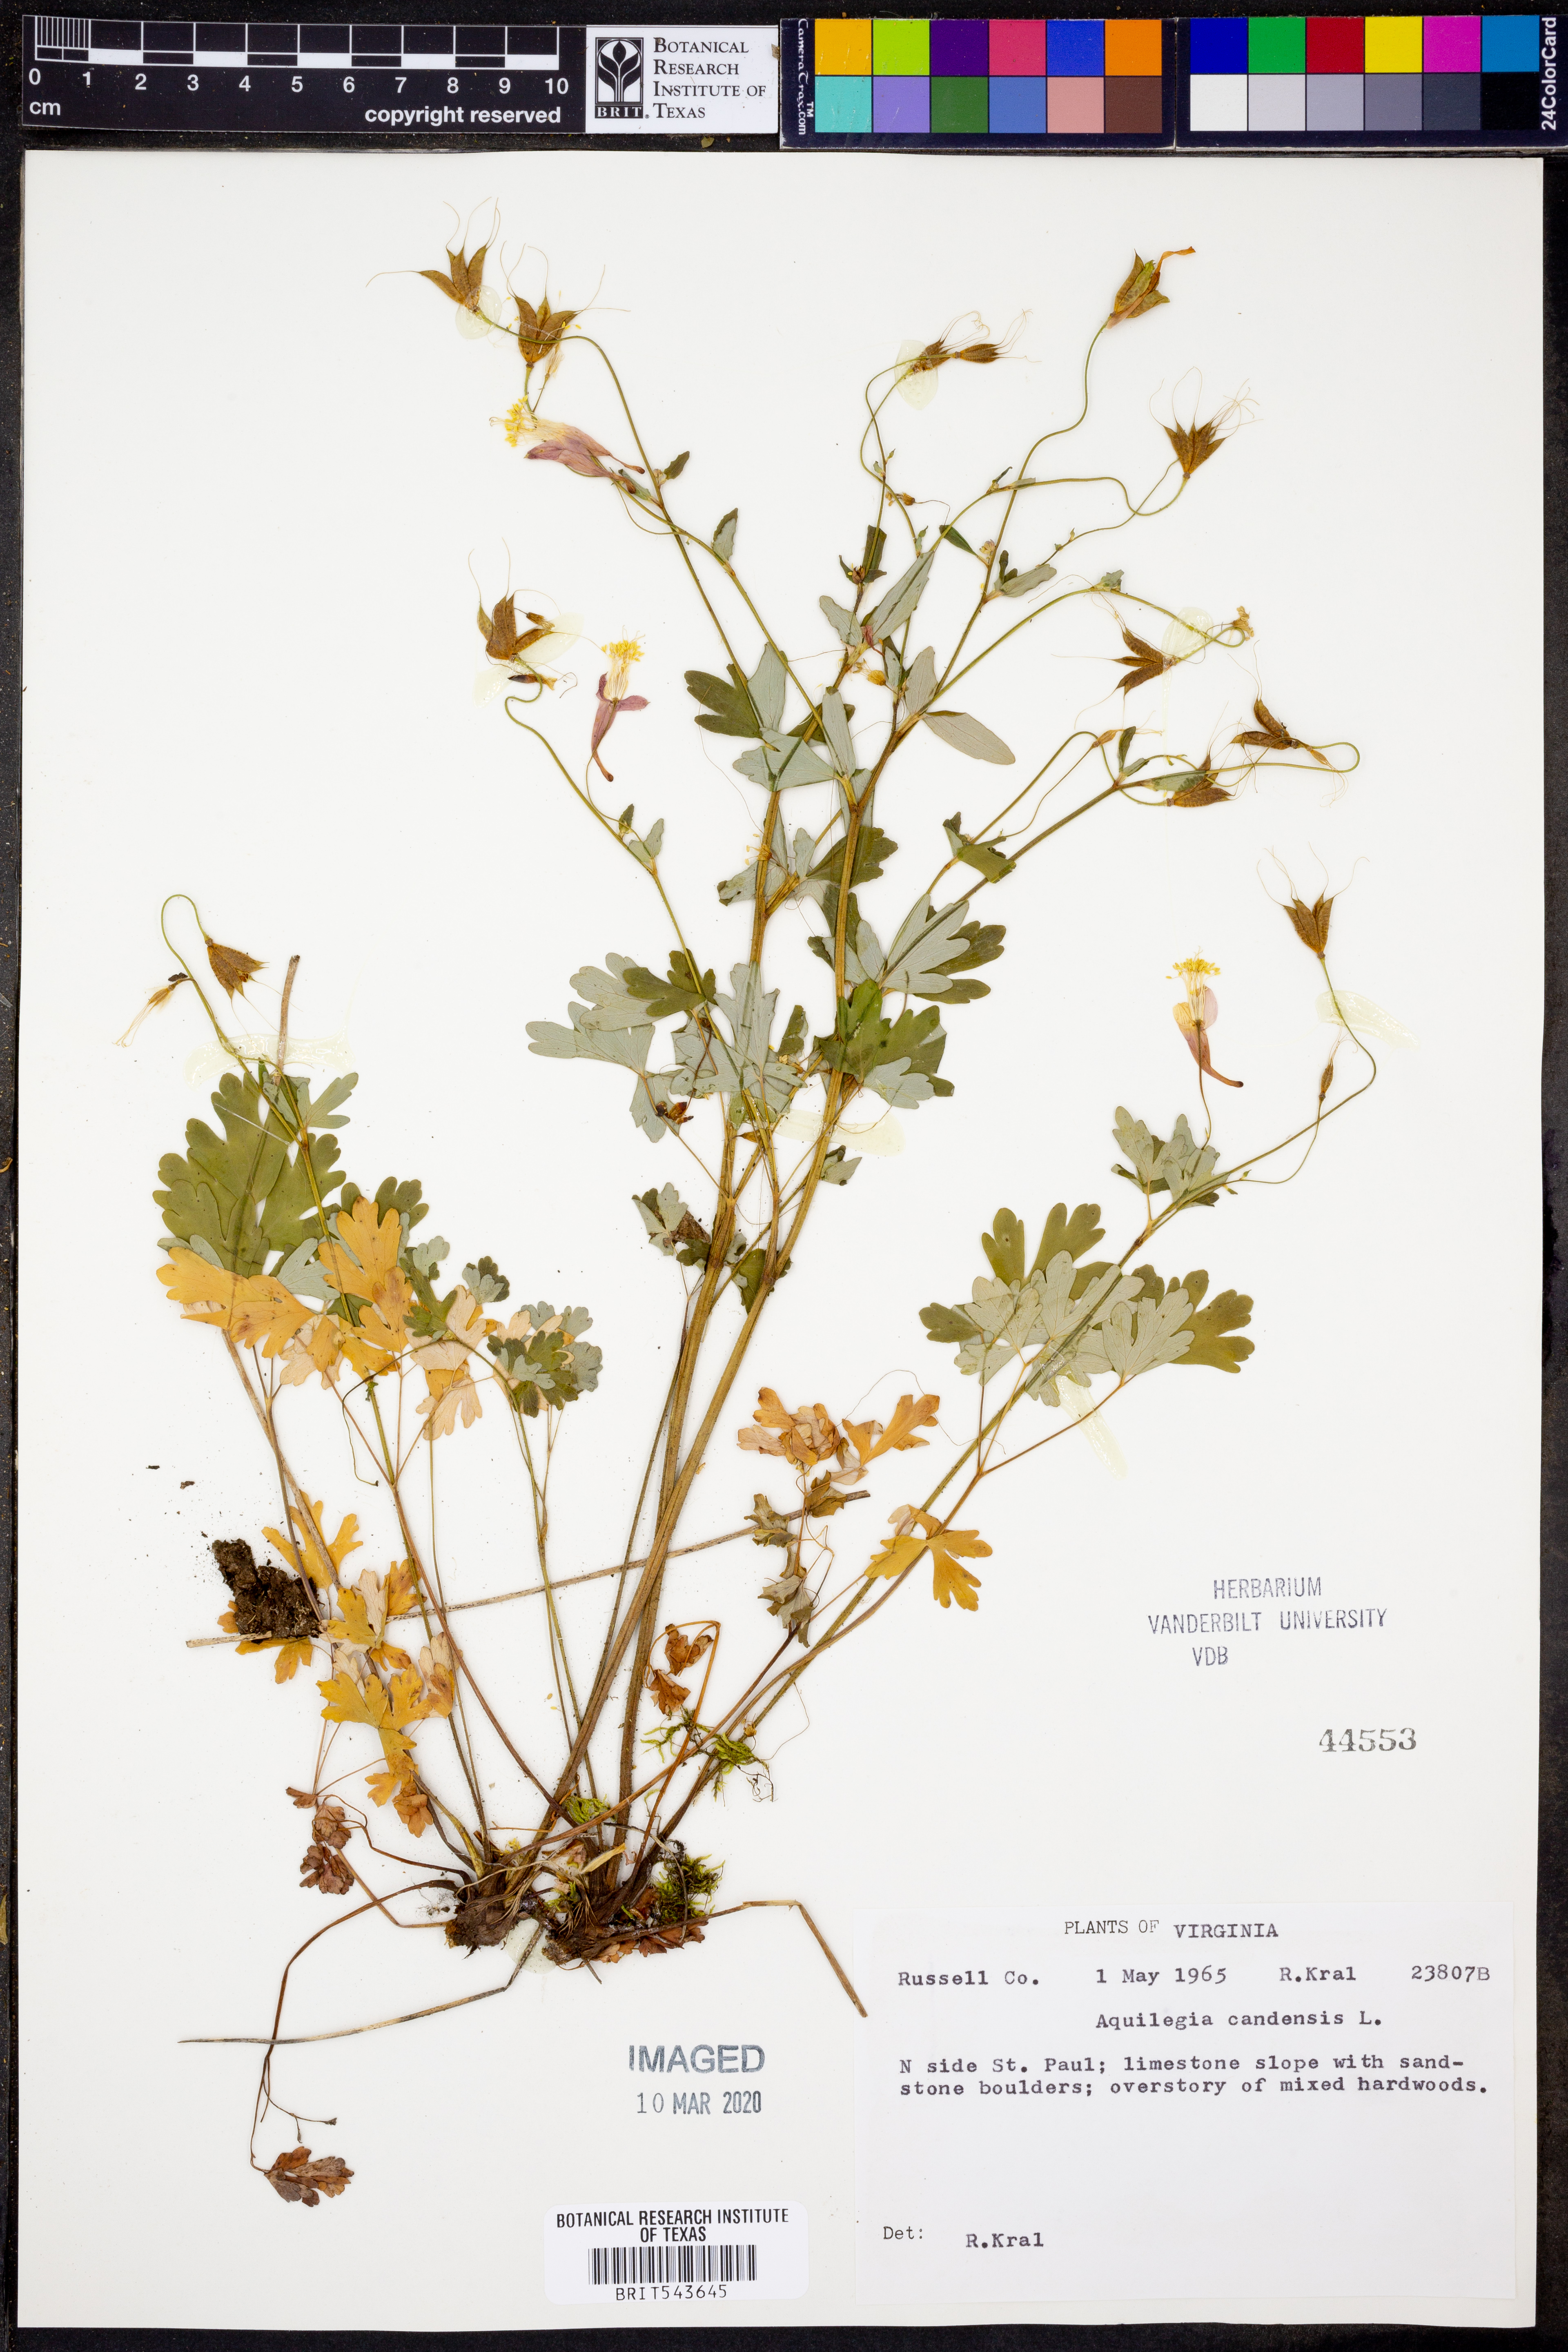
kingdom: Plantae
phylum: Tracheophyta
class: Magnoliopsida
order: Ranunculales
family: Ranunculaceae
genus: Aquilegia
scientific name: Aquilegia canadensis
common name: American columbine
